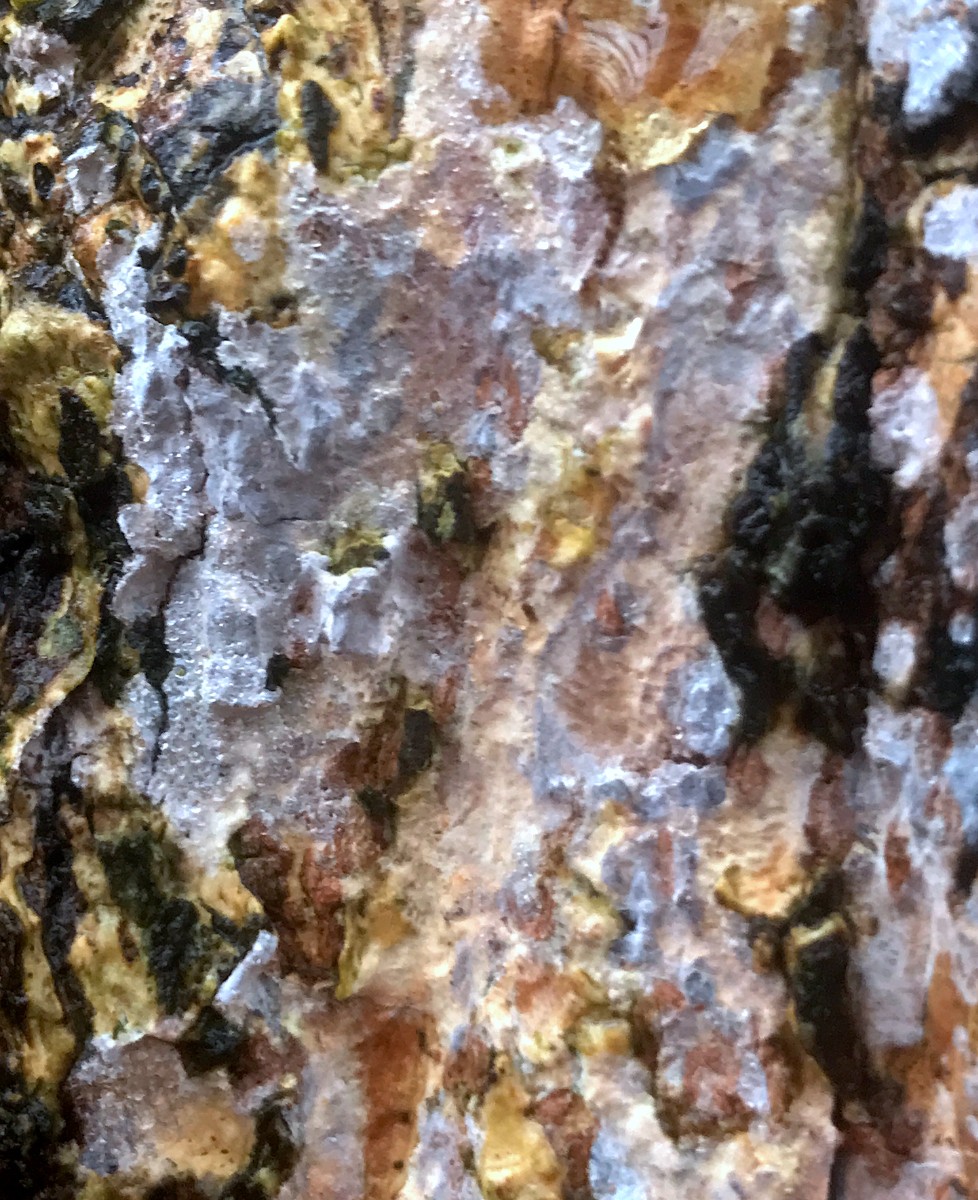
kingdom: Fungi
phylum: Basidiomycota
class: Agaricomycetes
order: Agaricales
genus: Dendrothele
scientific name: Dendrothele acerina
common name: navr-kalkplet
